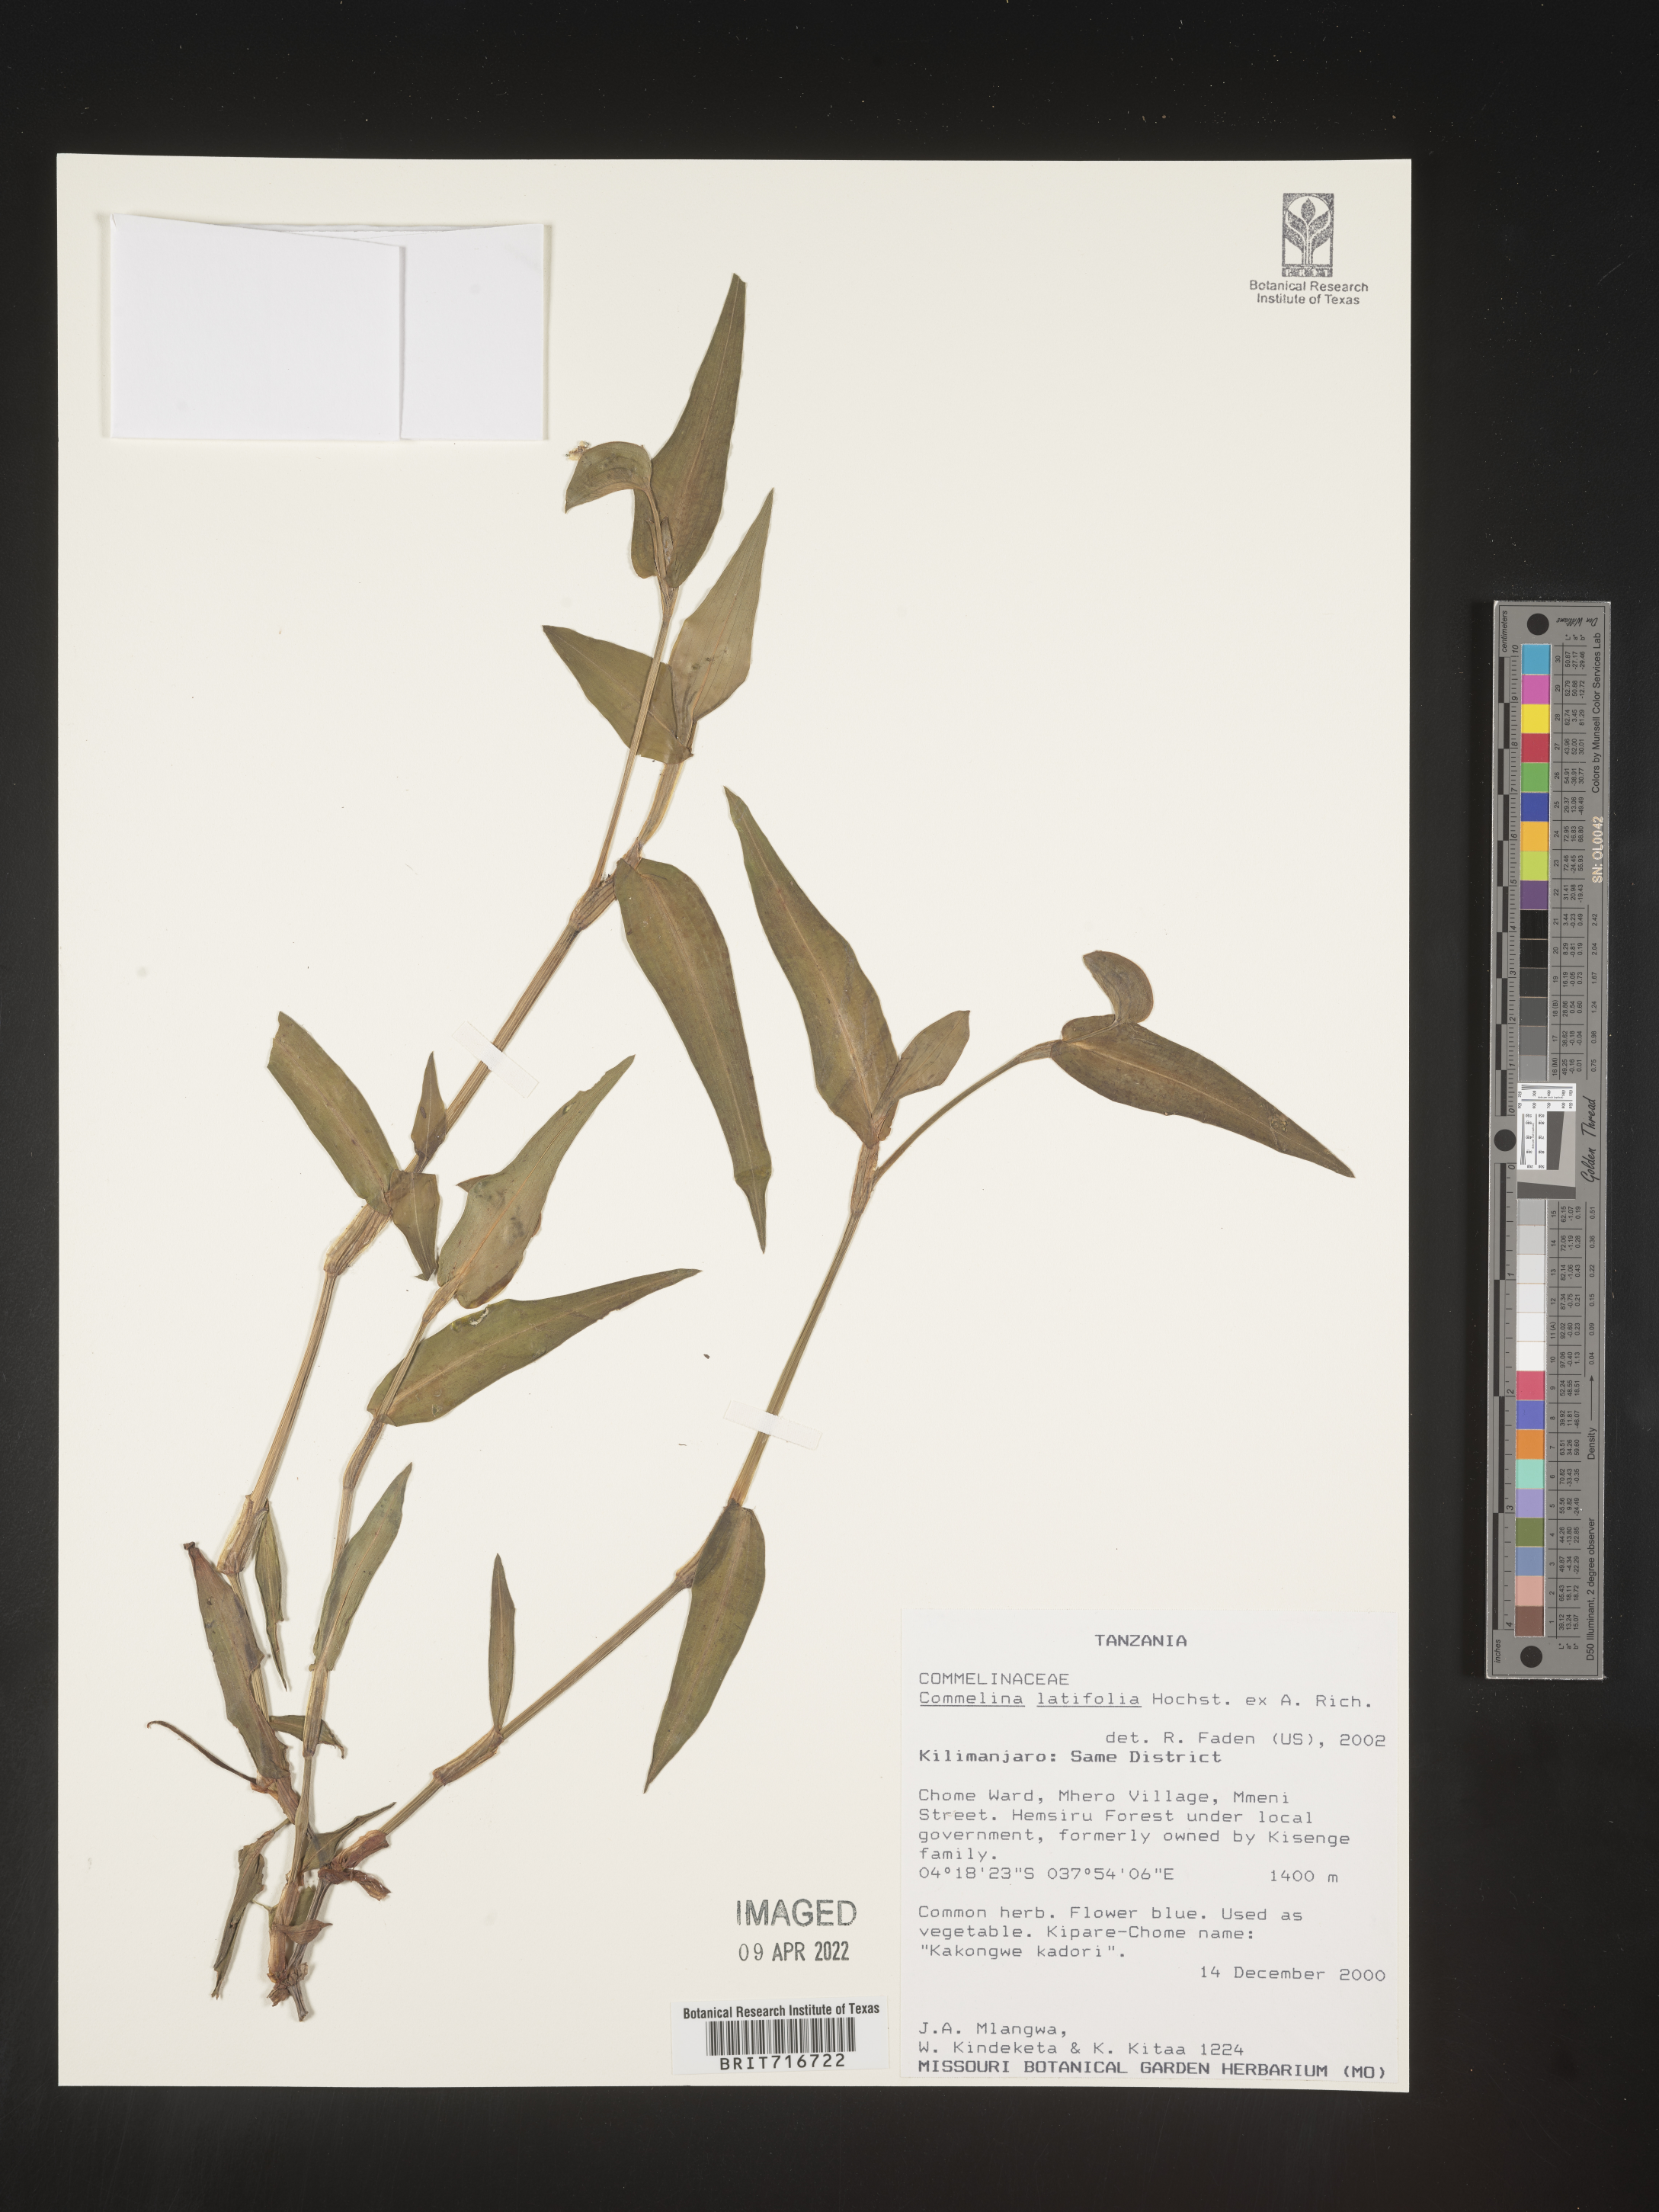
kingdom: Plantae
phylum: Tracheophyta
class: Liliopsida
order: Commelinales
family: Commelinaceae
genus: Commelina
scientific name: Commelina
